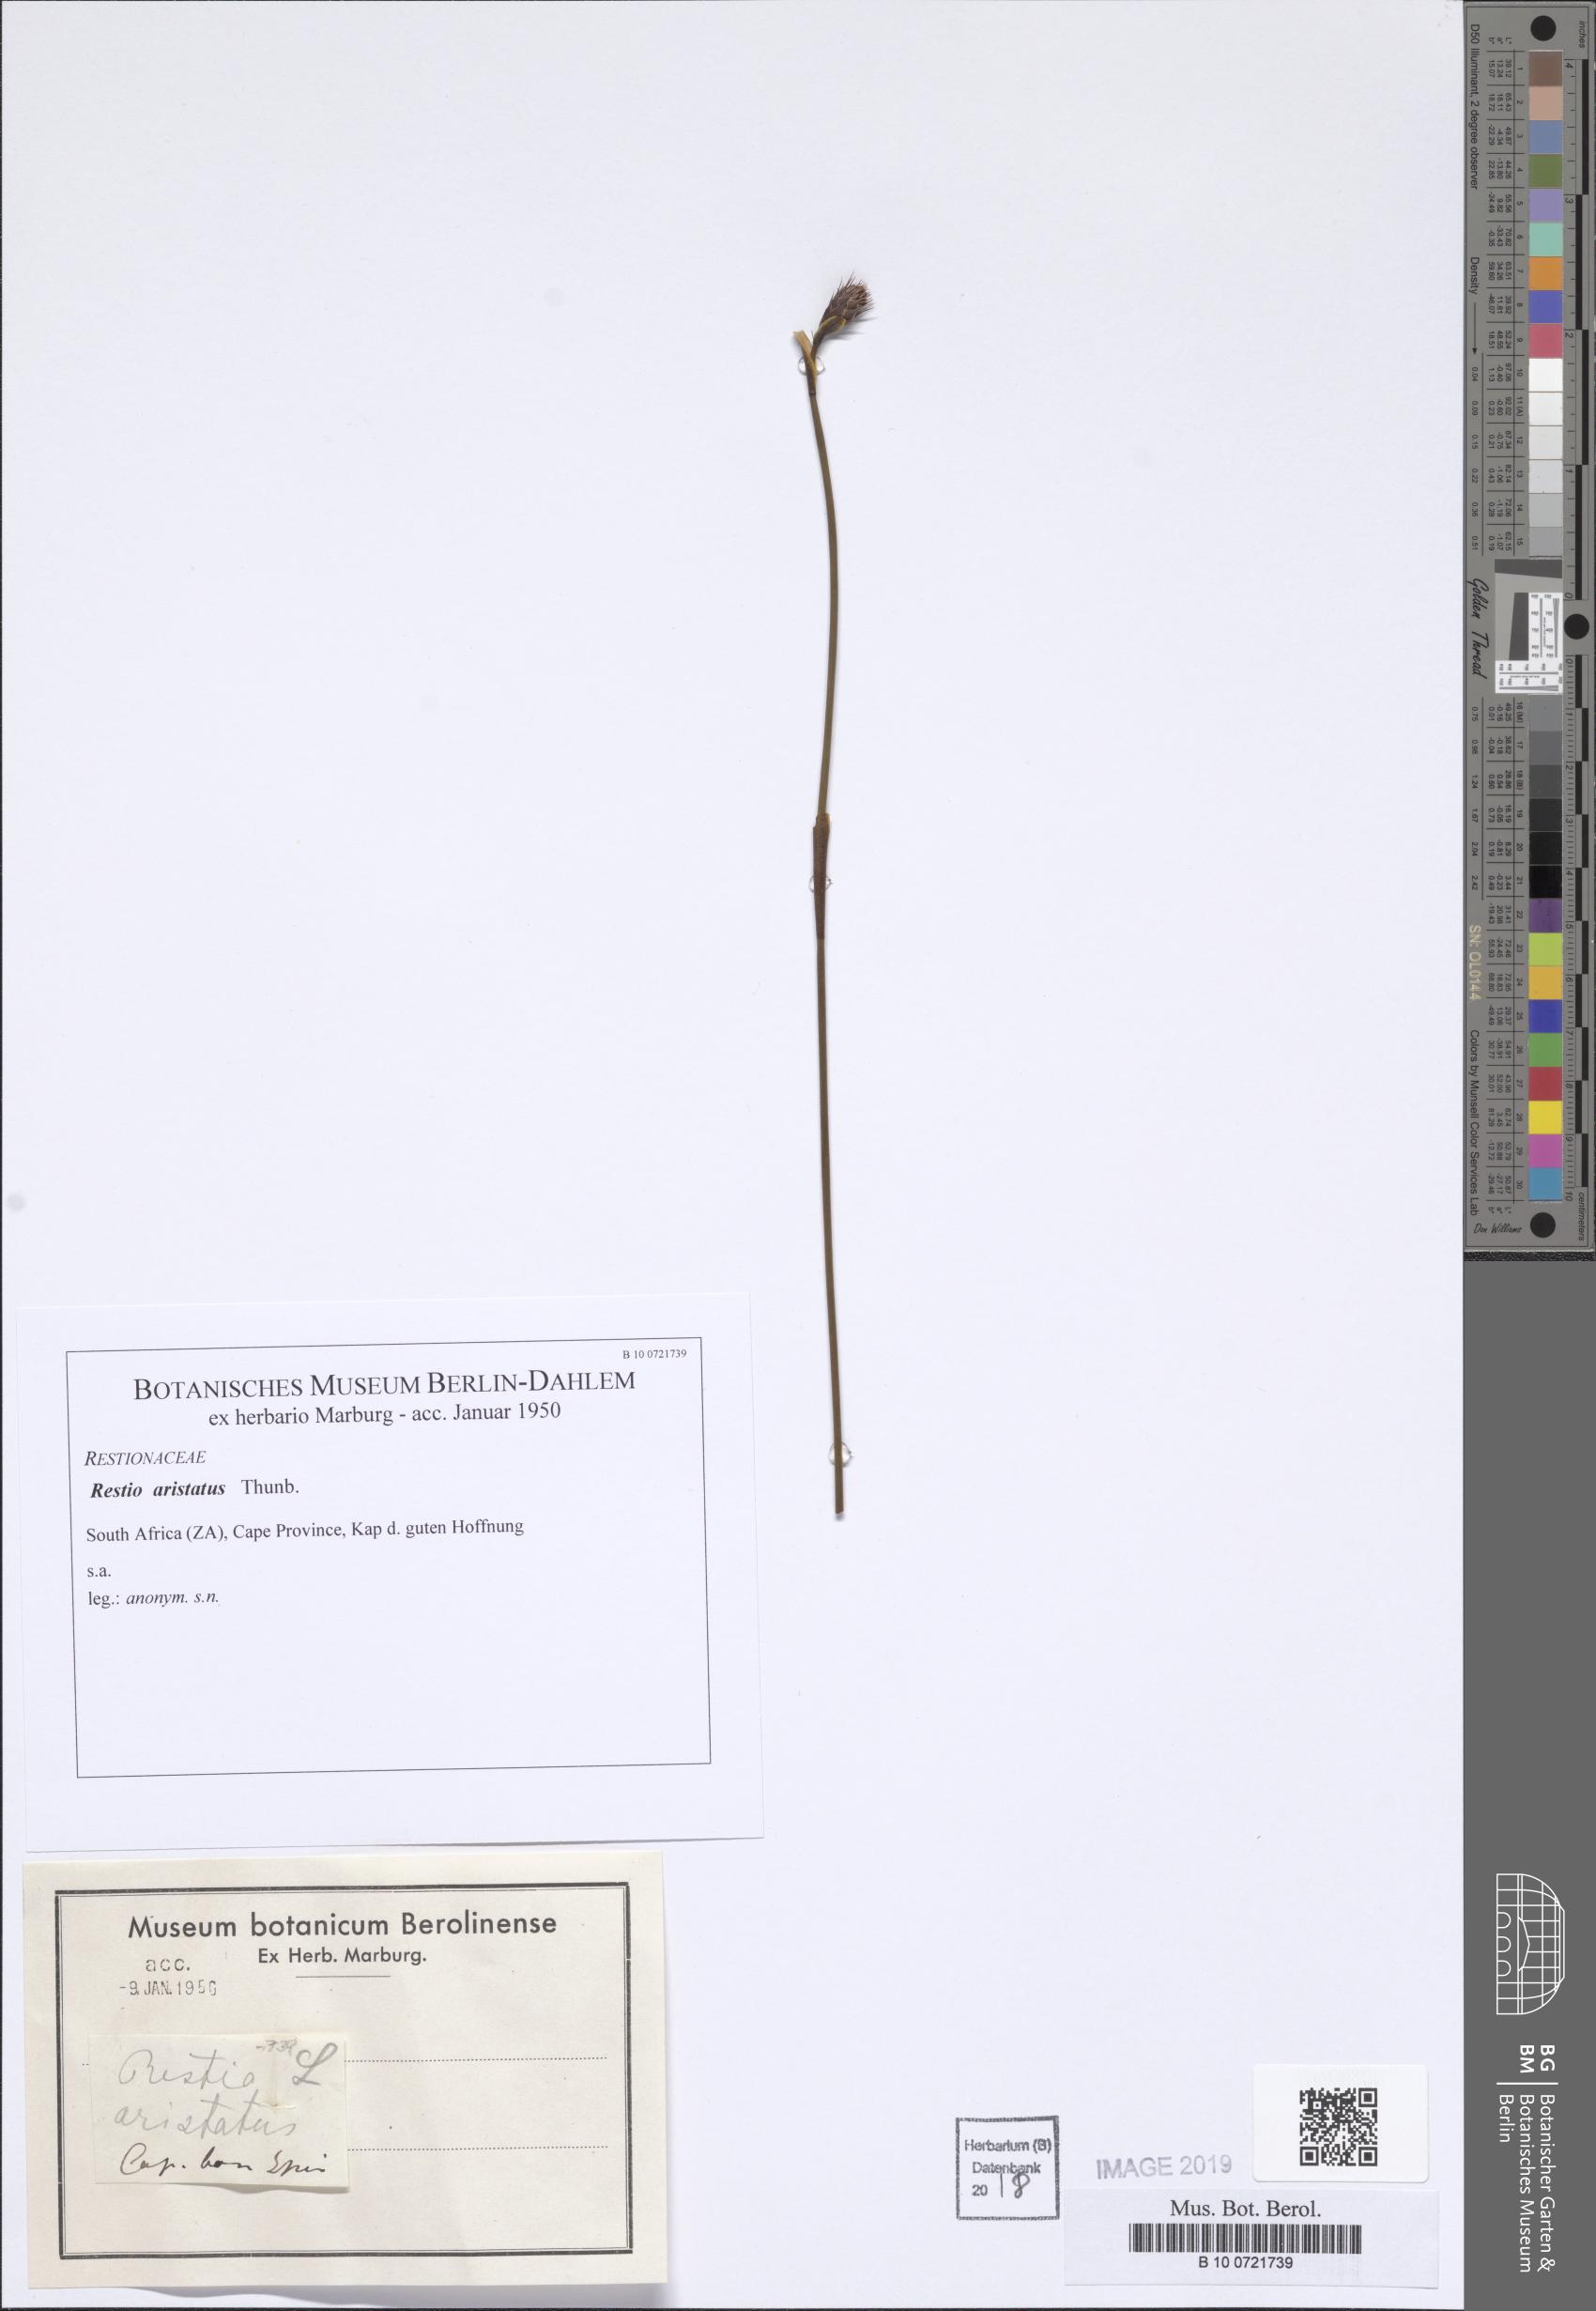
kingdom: Plantae
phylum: Tracheophyta
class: Liliopsida
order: Poales
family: Restionaceae
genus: Hypodiscus
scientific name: Hypodiscus aristatus
